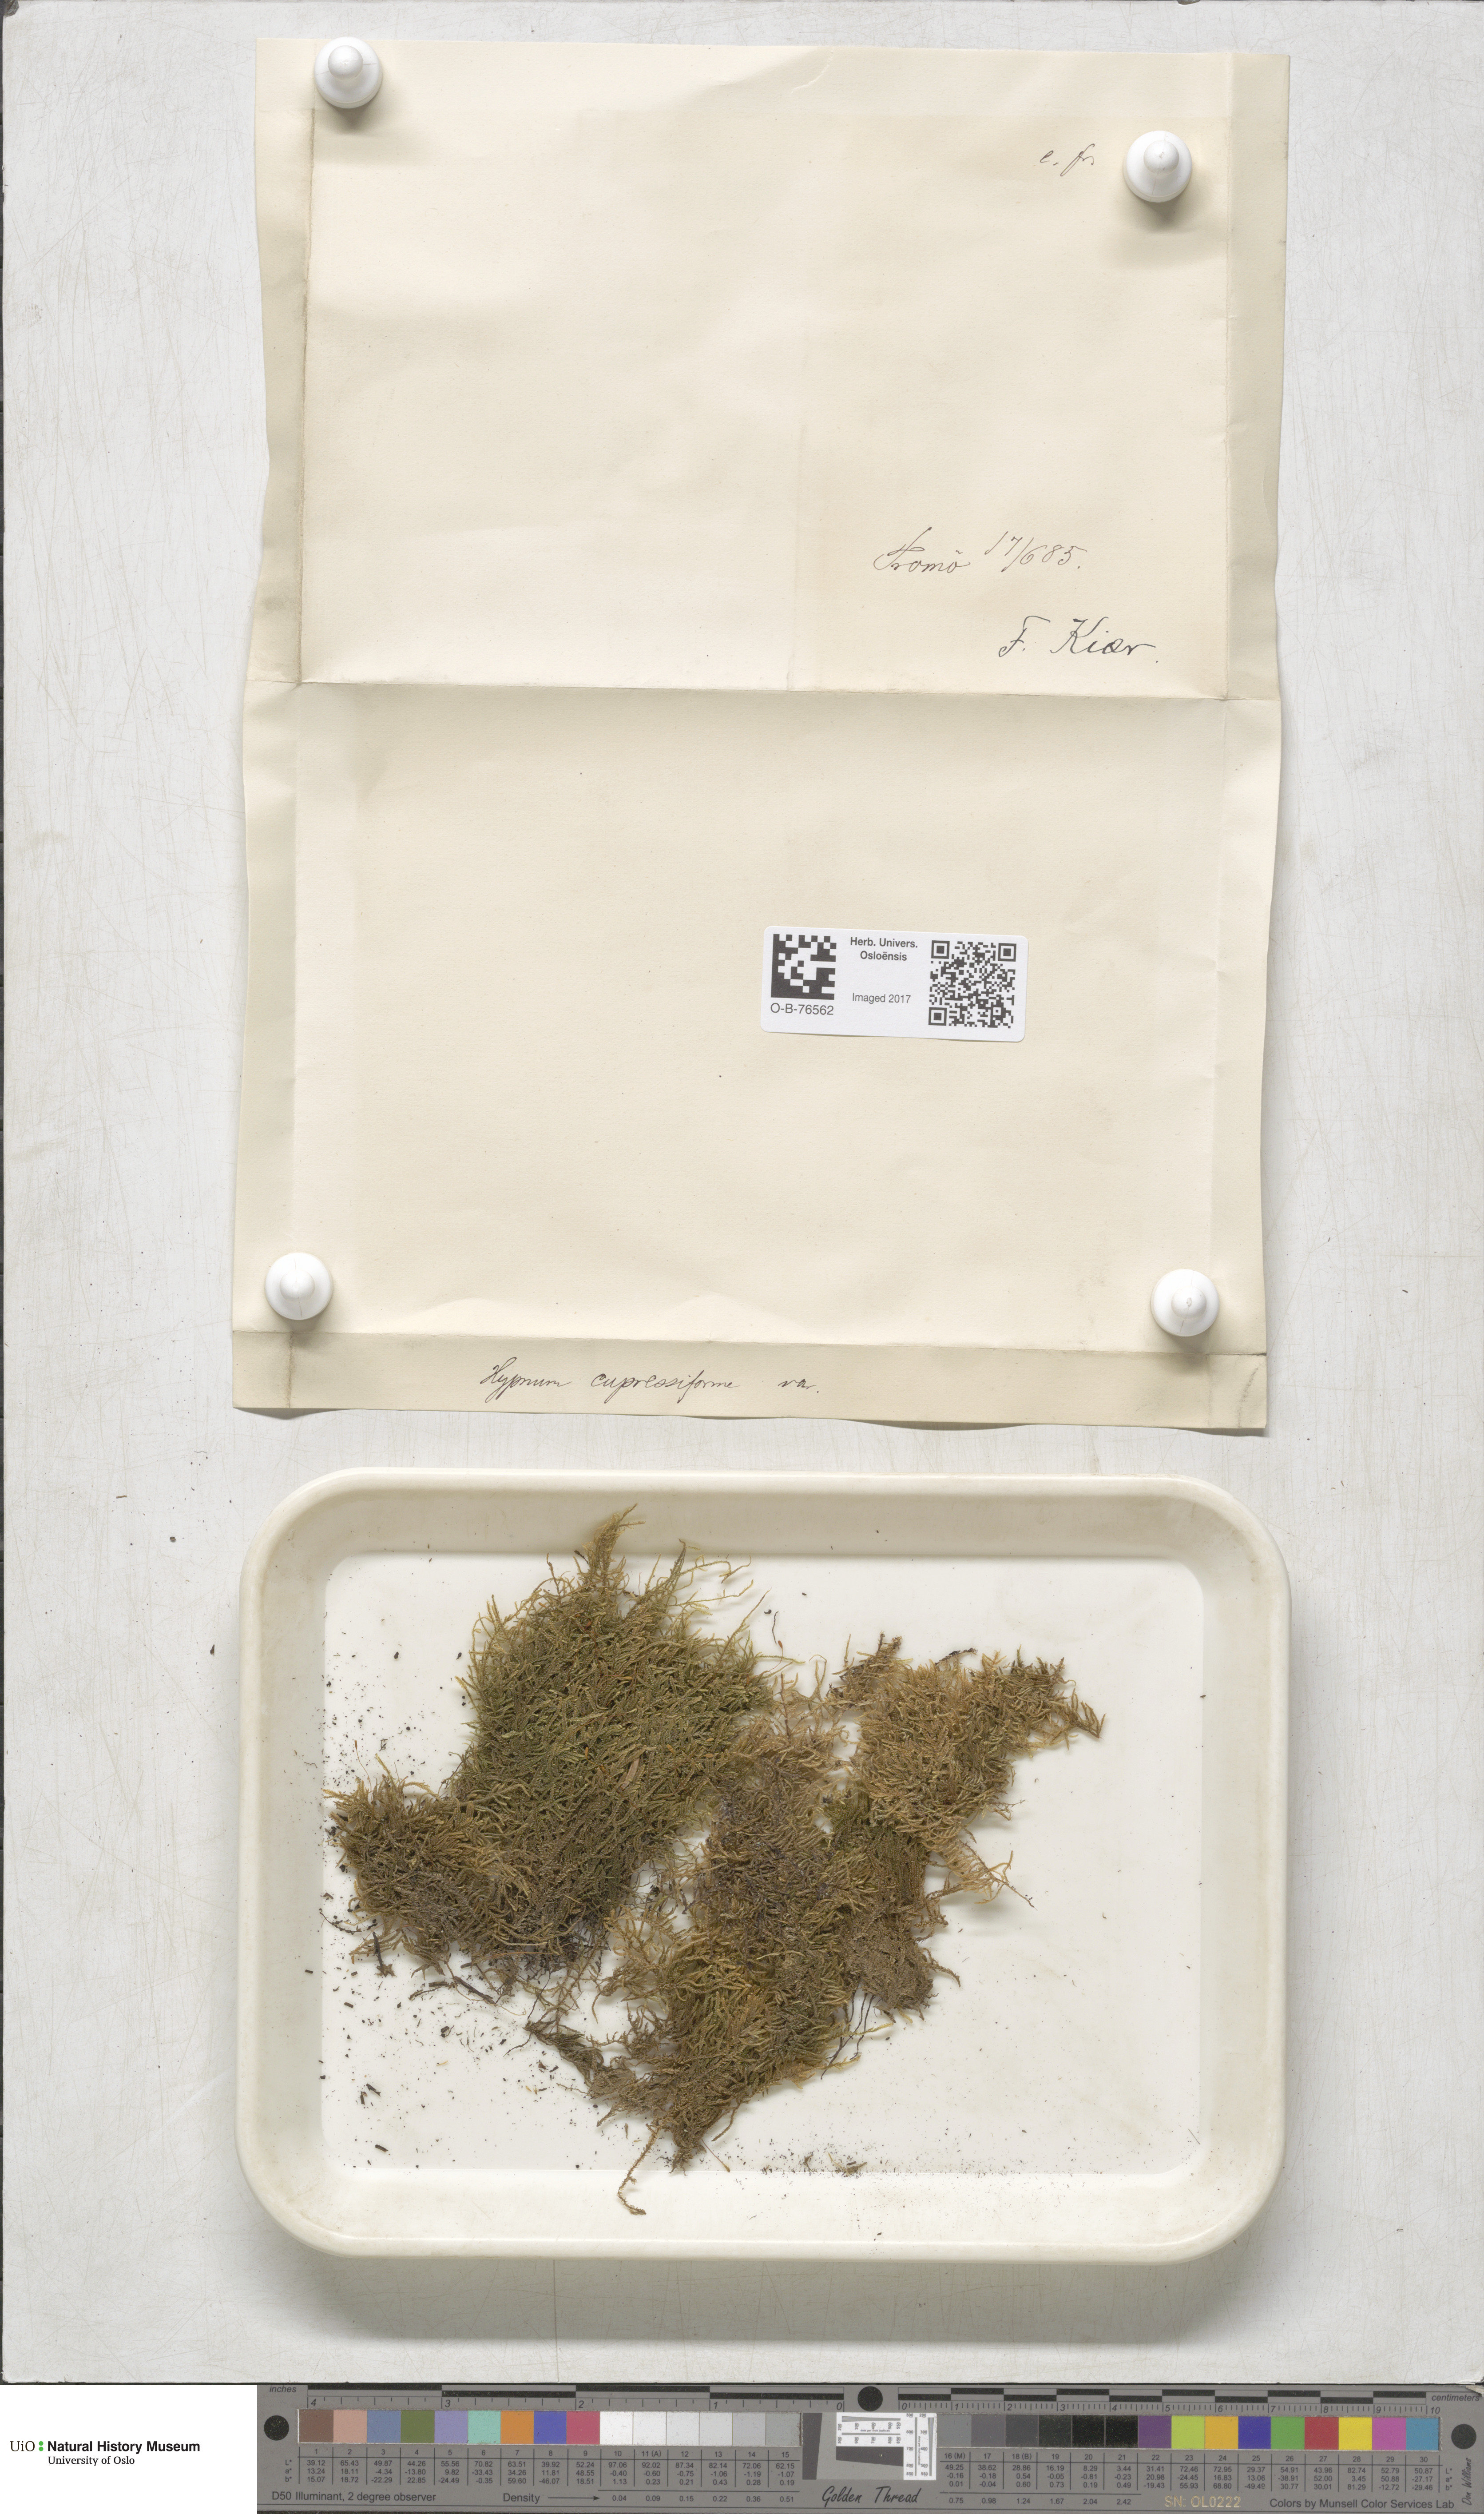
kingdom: Plantae
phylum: Bryophyta
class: Bryopsida
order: Hypnales
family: Hypnaceae
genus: Hypnum
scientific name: Hypnum cupressiforme
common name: Cypress-leaved plait-moss
